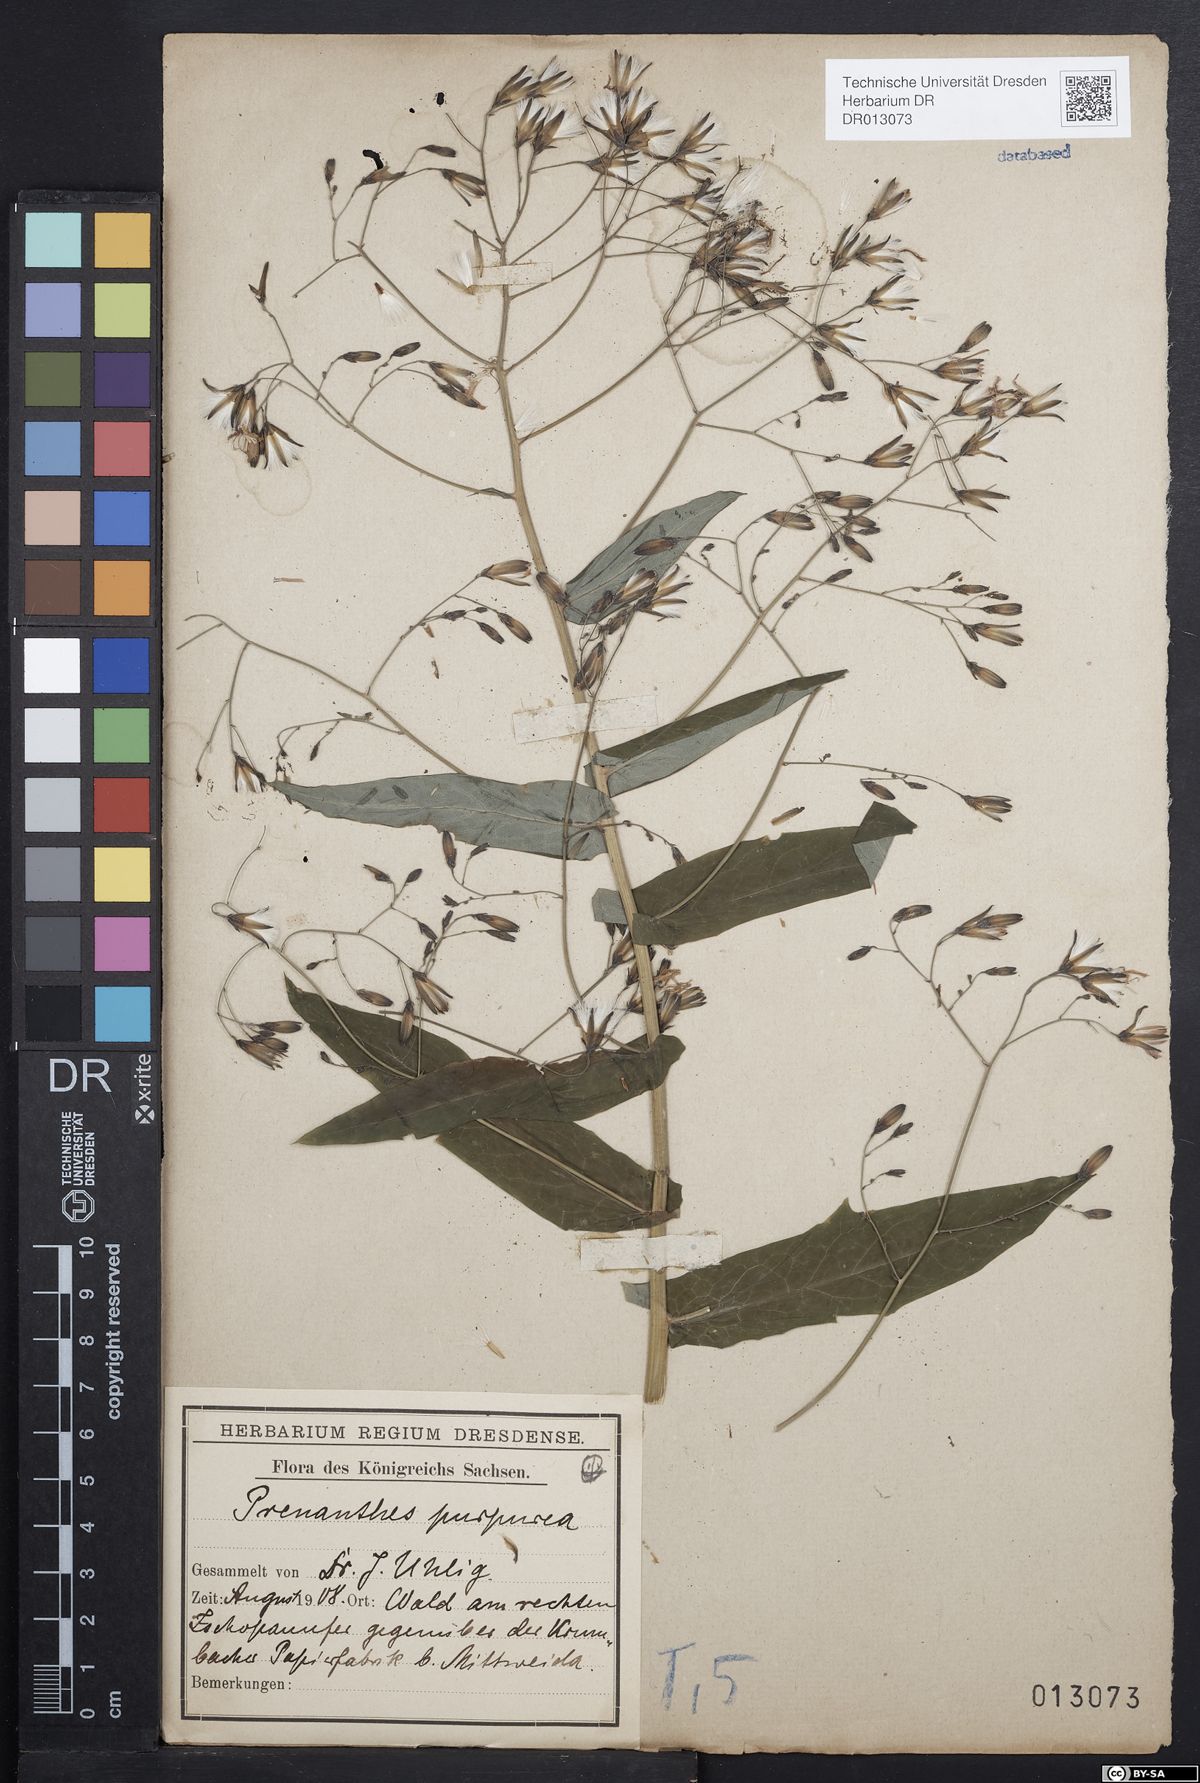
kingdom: Plantae
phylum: Tracheophyta
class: Magnoliopsida
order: Asterales
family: Asteraceae
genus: Prenanthes
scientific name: Prenanthes purpurea
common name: Purple lettuce
